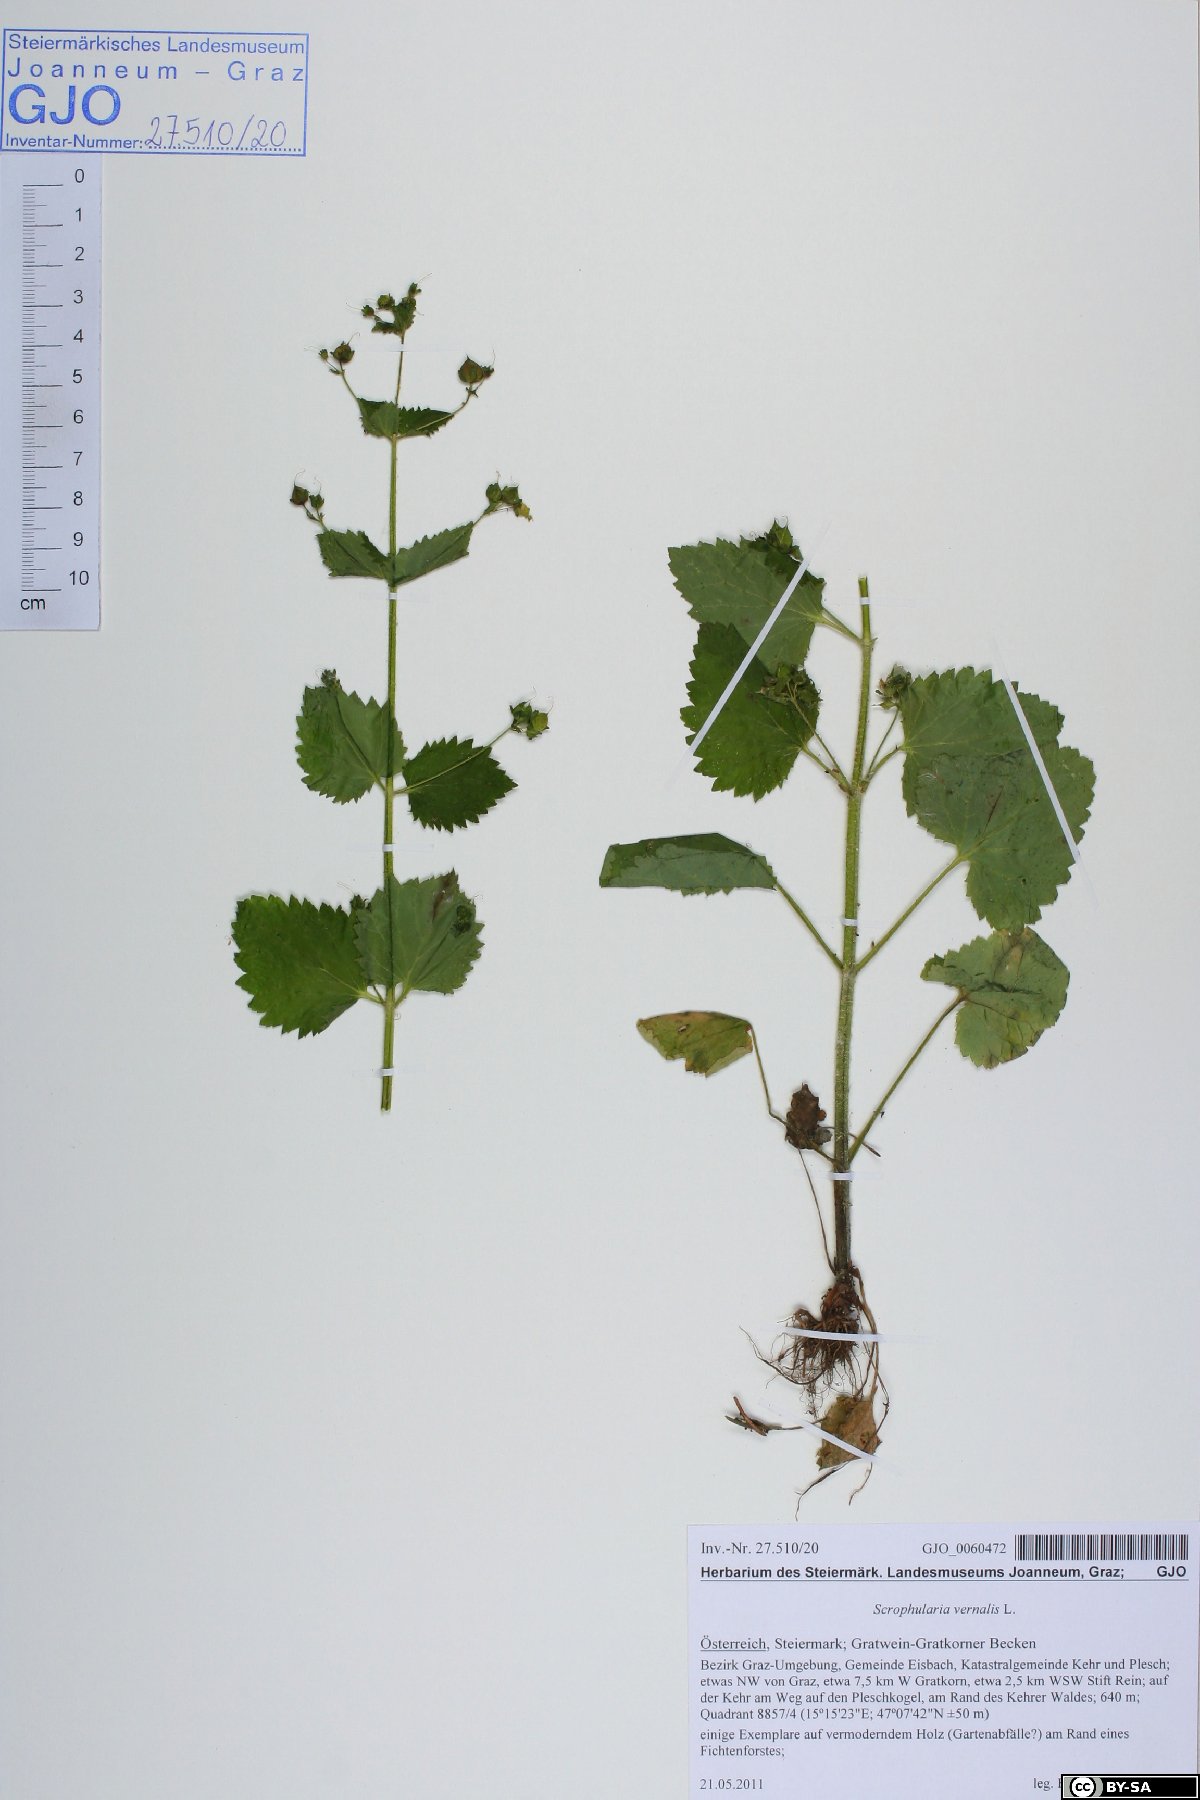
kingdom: Plantae
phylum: Tracheophyta
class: Magnoliopsida
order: Lamiales
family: Scrophulariaceae
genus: Scrophularia
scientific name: Scrophularia vernalis
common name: Yellow figwort
